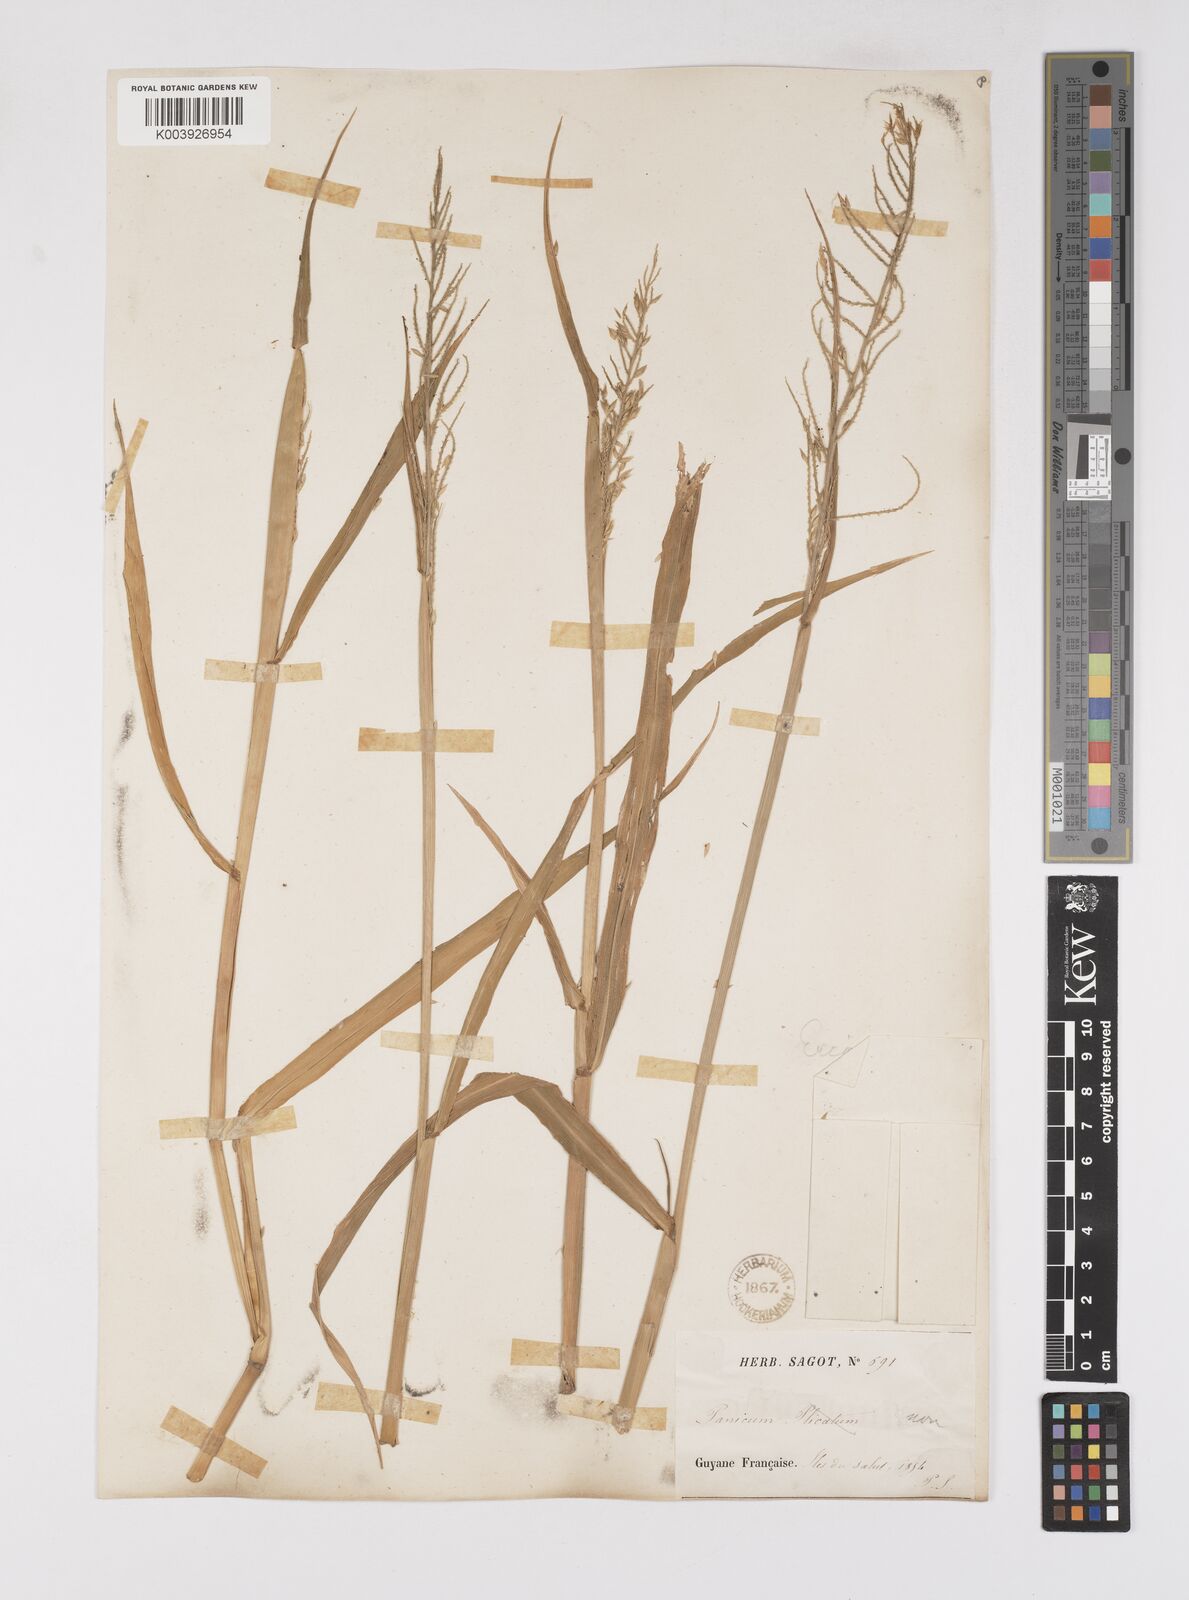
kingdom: Plantae
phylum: Tracheophyta
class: Liliopsida
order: Poales
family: Poaceae
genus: Eriochloa
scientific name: Eriochloa punctata
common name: Louisiana cupgrass
